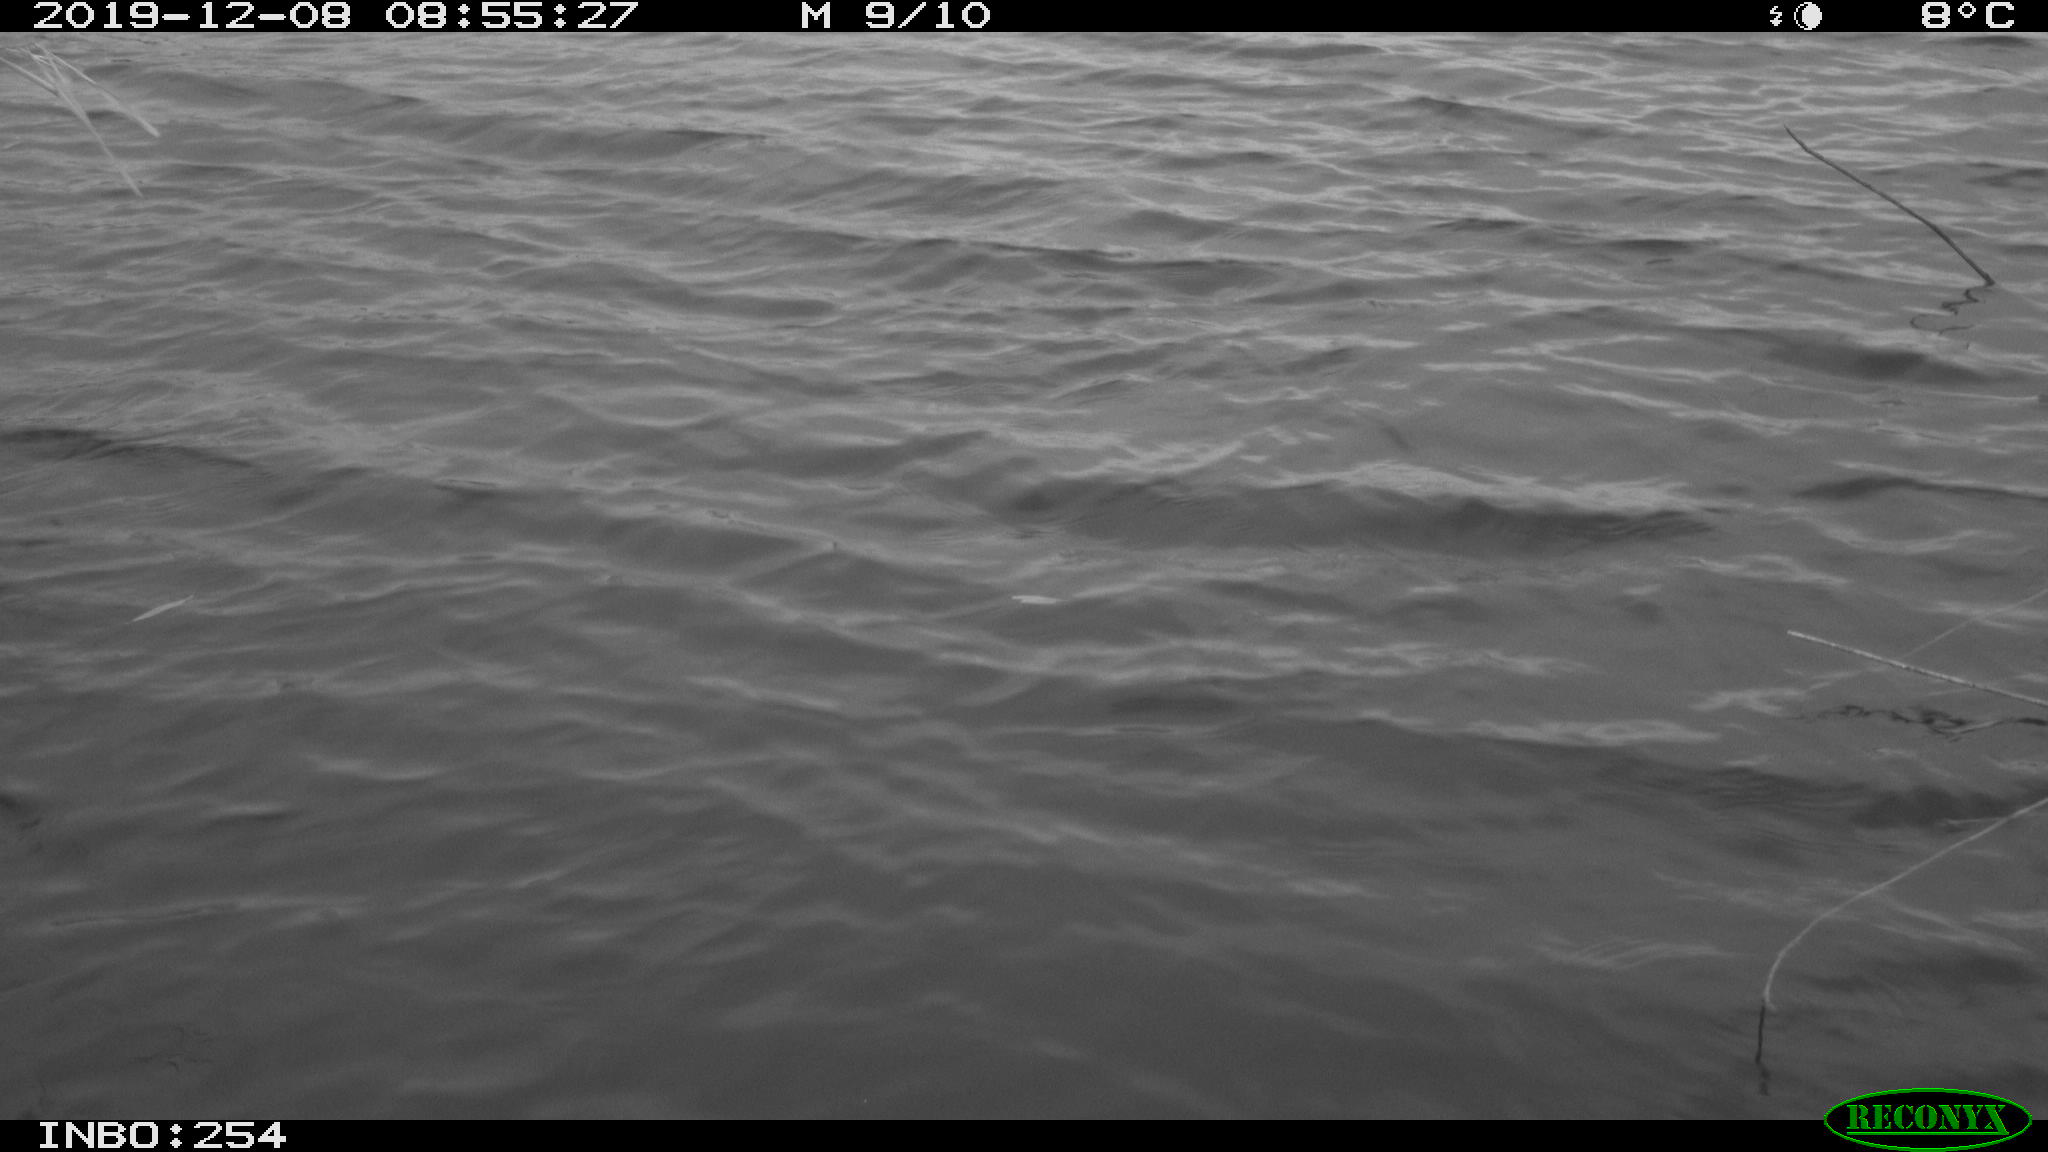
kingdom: Animalia
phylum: Chordata
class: Aves
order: Gruiformes
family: Rallidae
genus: Gallinula
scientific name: Gallinula chloropus
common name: Common moorhen
